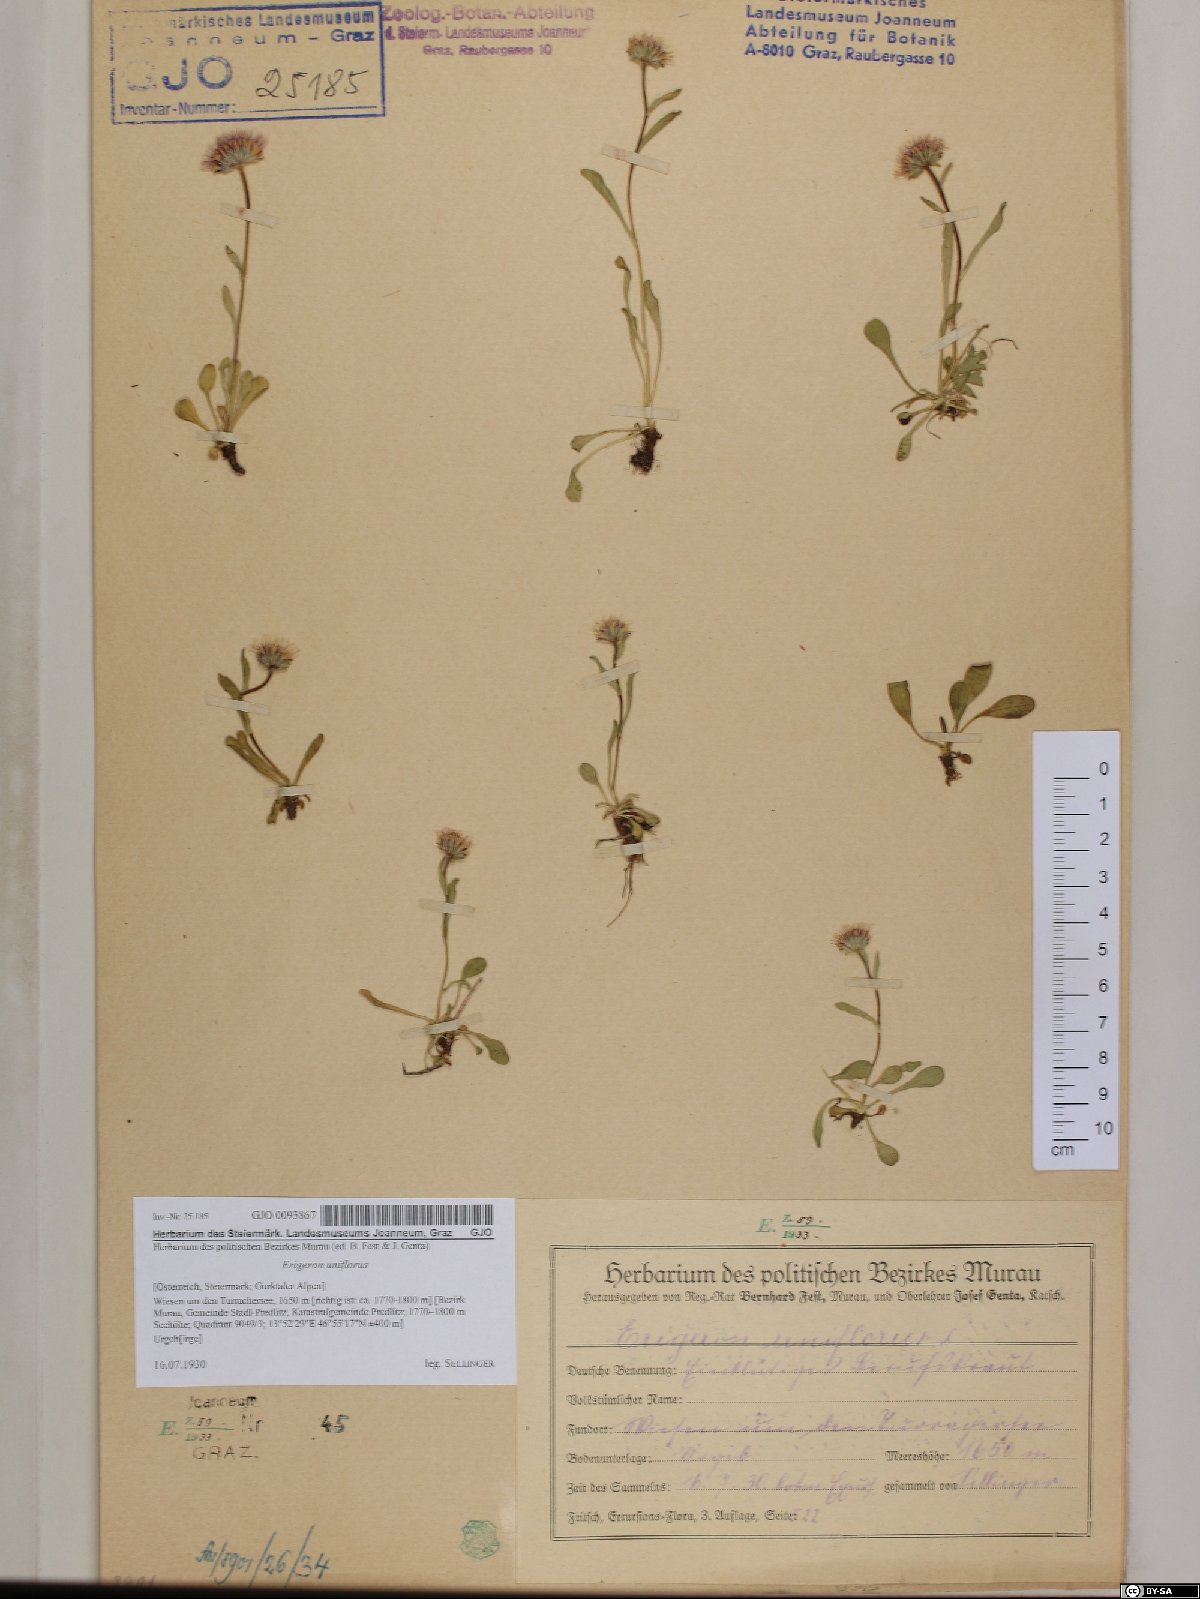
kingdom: Plantae
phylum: Tracheophyta
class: Magnoliopsida
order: Asterales
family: Asteraceae
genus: Erigeron
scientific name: Erigeron uniflorus
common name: Northern daisy
